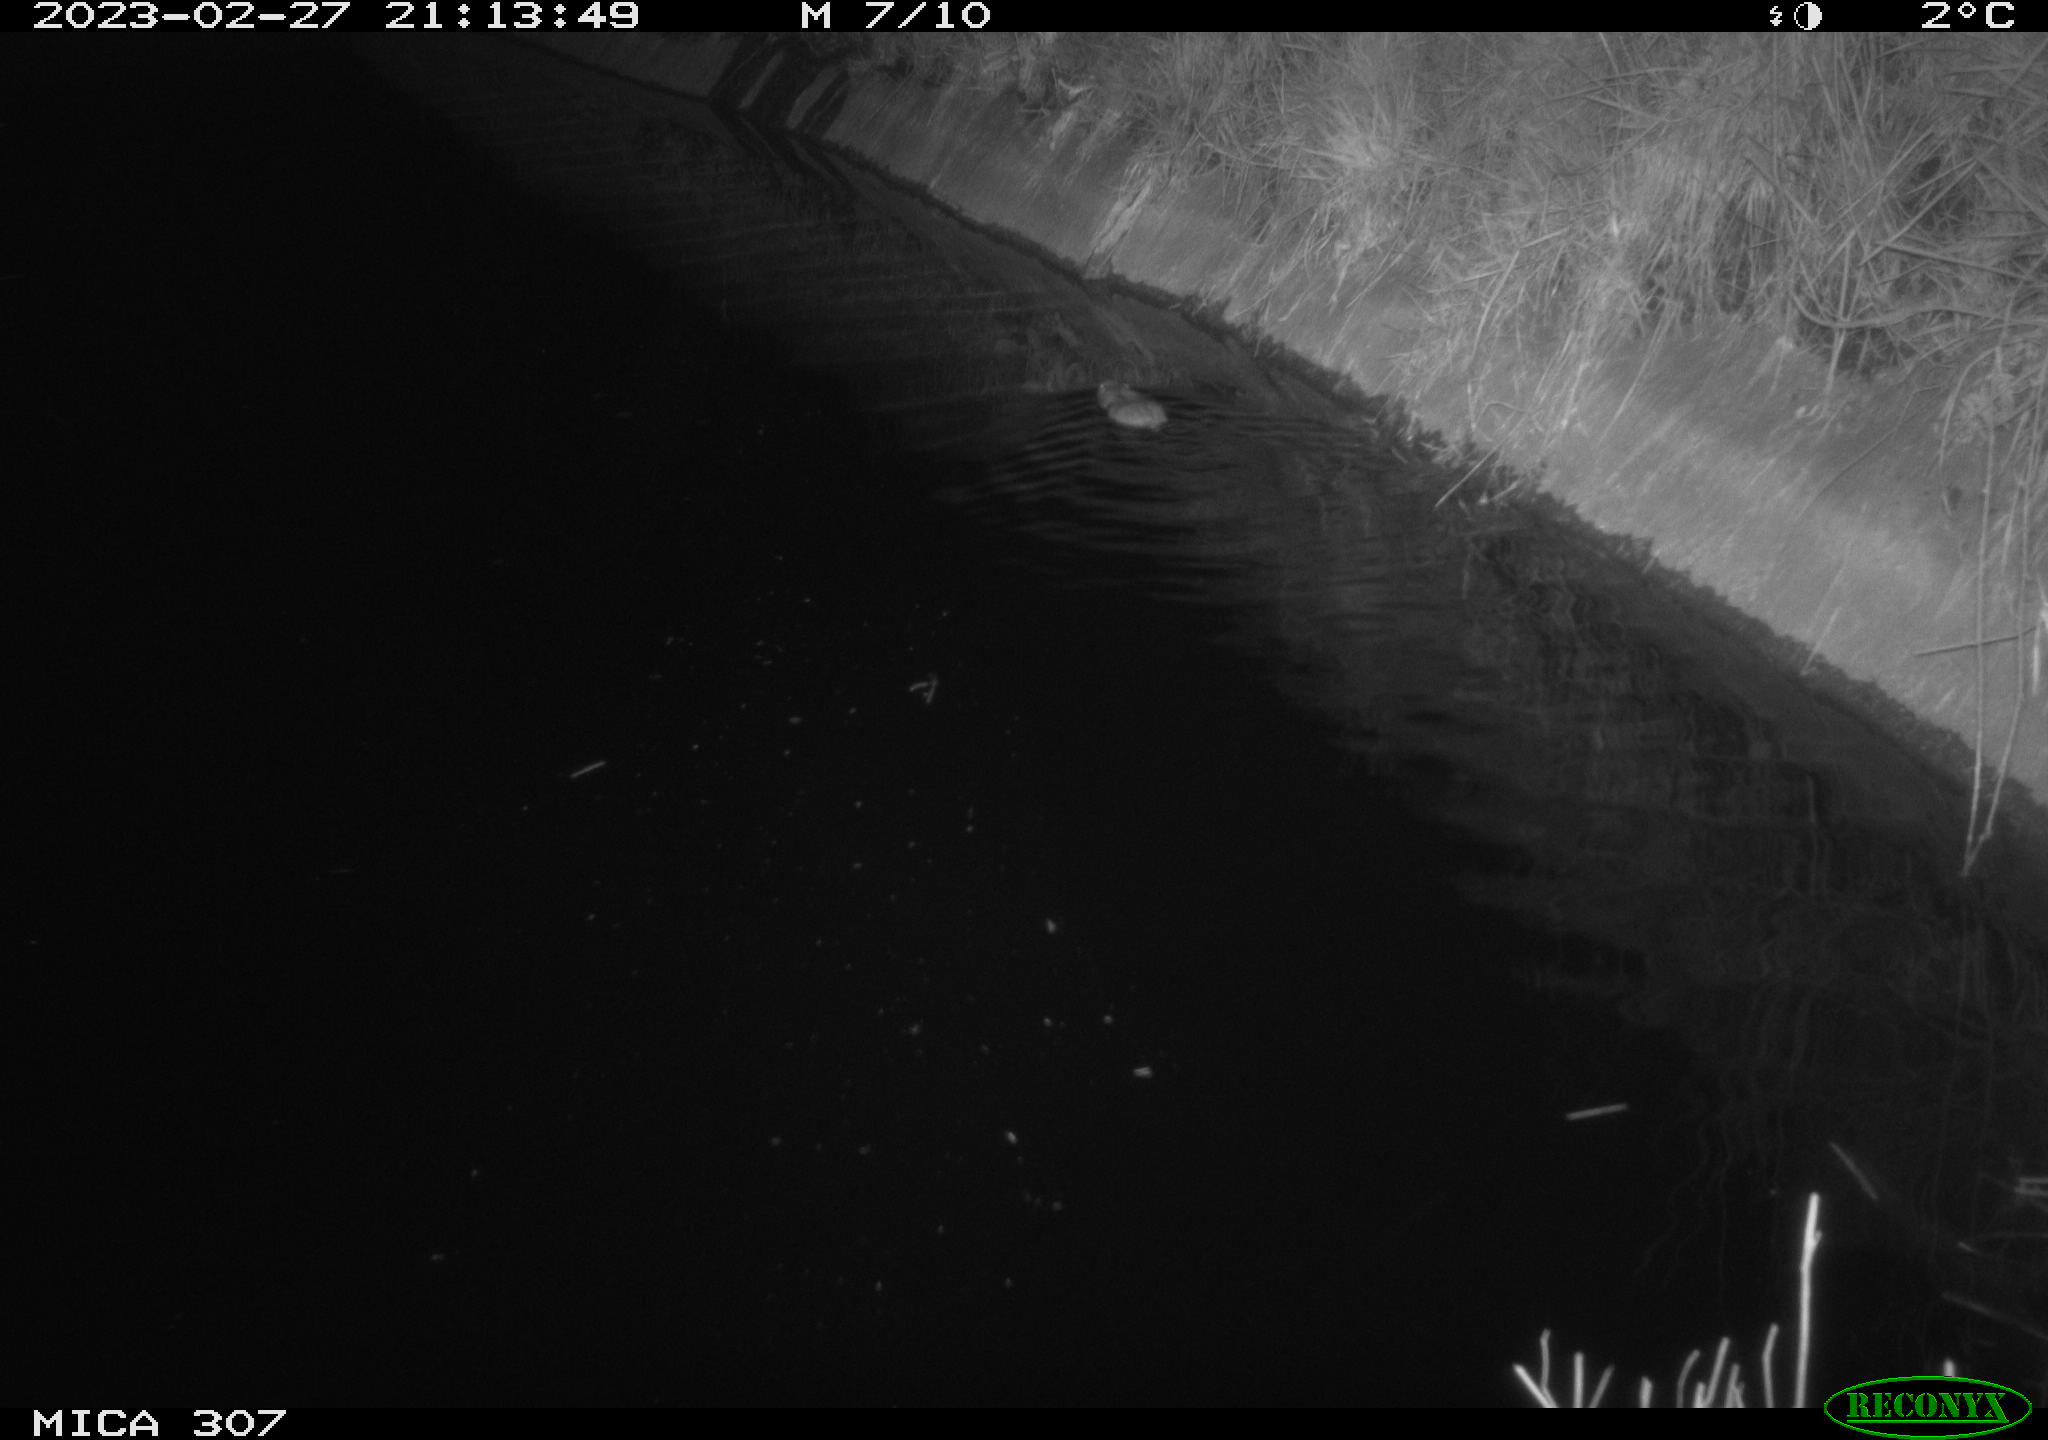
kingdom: Animalia
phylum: Chordata
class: Mammalia
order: Rodentia
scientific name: Rodentia
